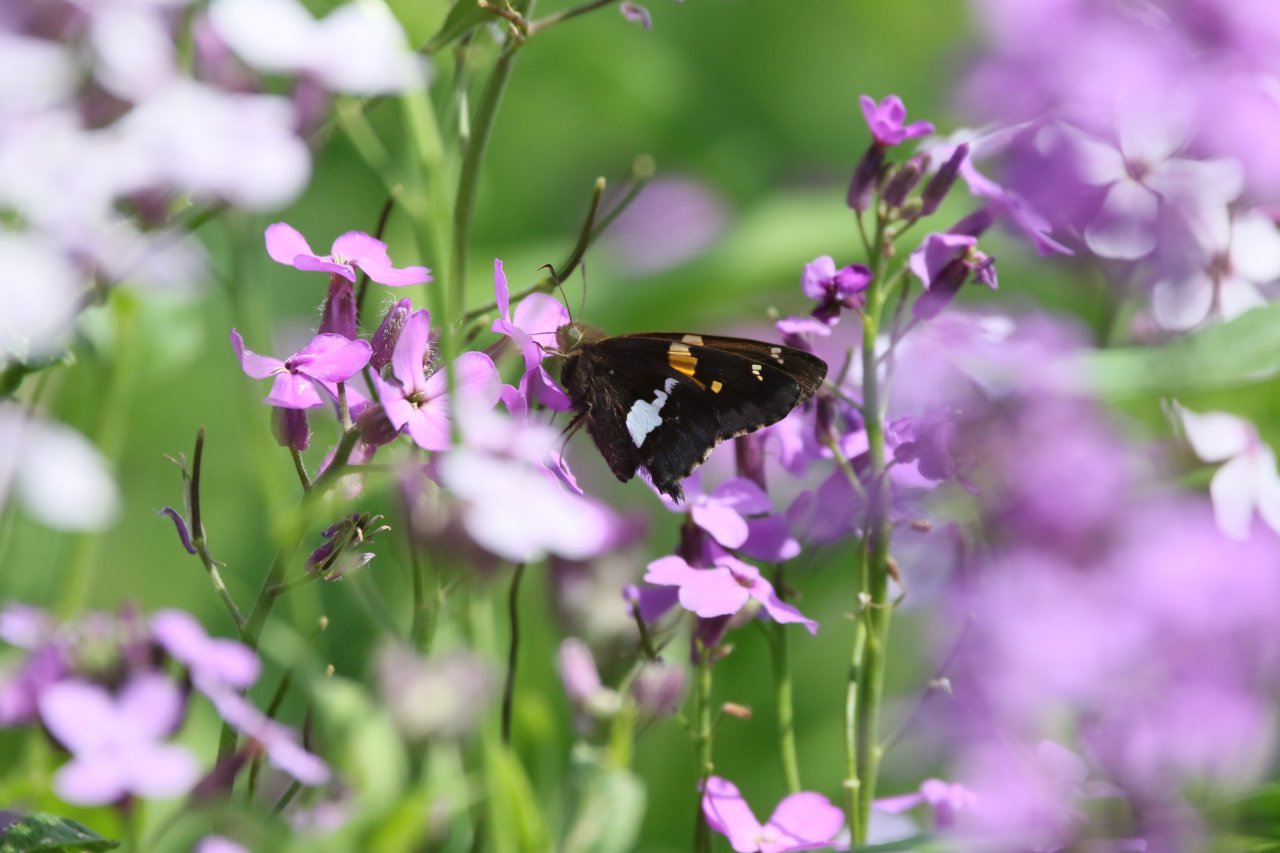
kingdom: Animalia
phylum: Arthropoda
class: Insecta
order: Lepidoptera
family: Hesperiidae
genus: Epargyreus
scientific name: Epargyreus clarus
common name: Silver-spotted Skipper
